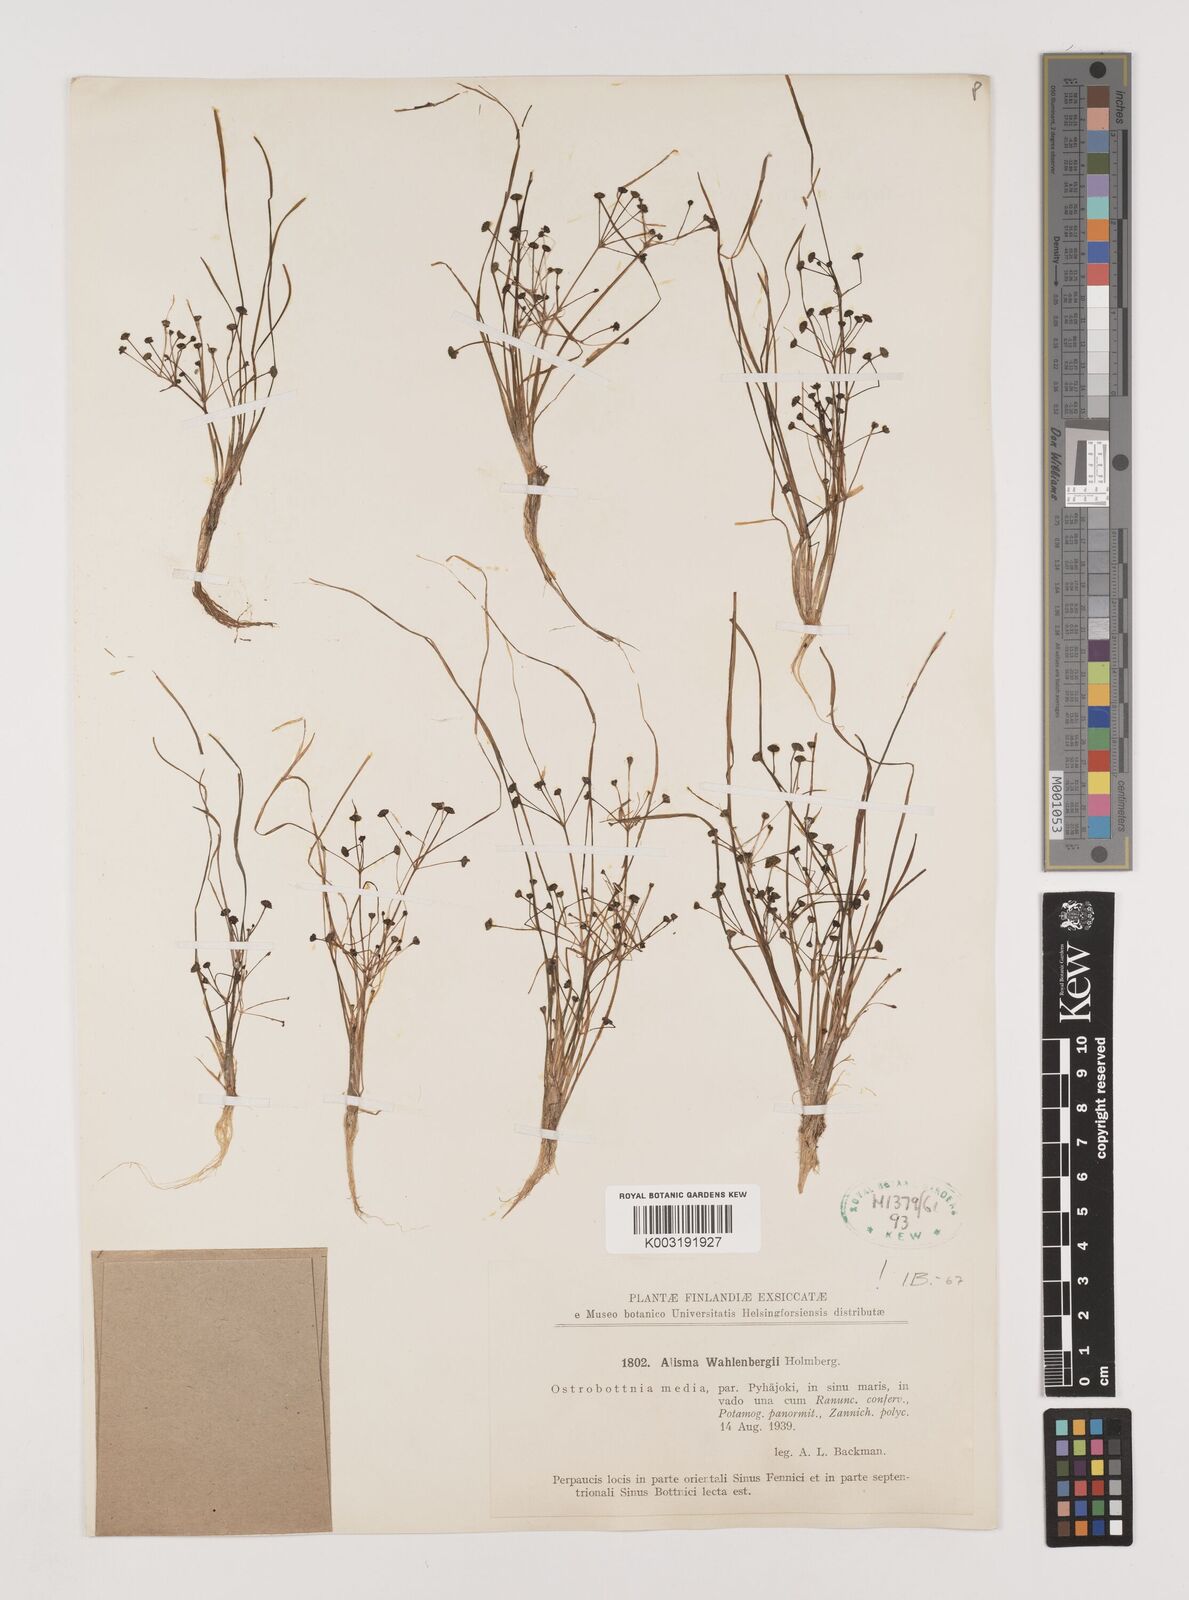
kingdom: Plantae
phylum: Tracheophyta
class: Liliopsida
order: Alismatales
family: Alismataceae
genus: Alisma
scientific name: Alisma wahlenbergii
